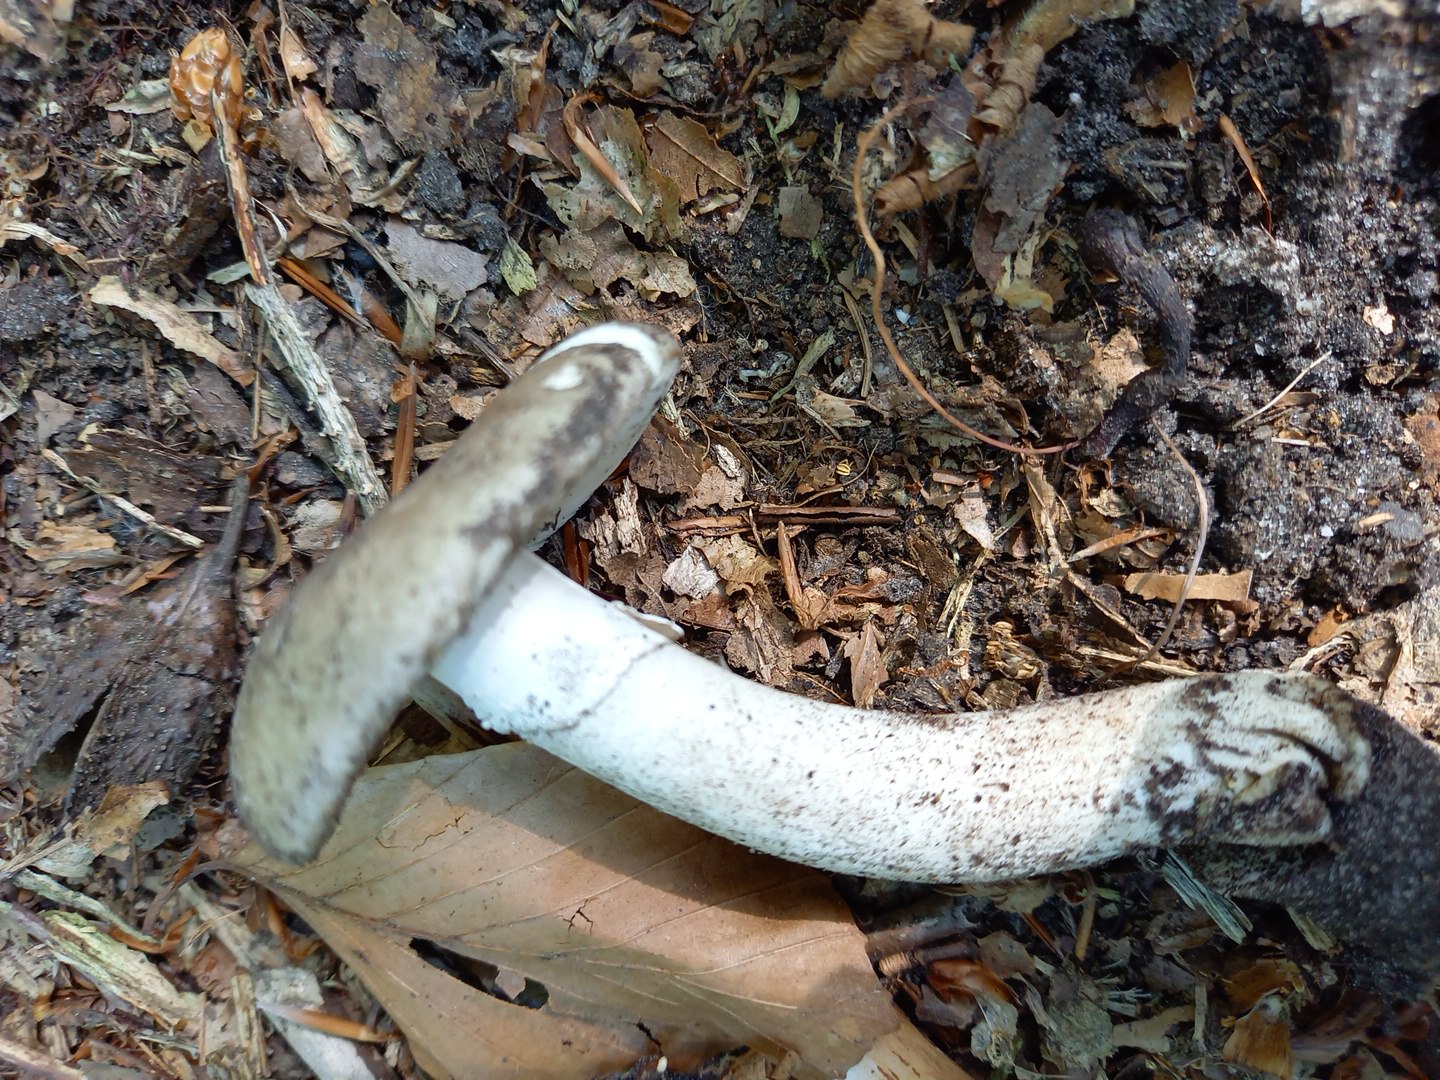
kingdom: Fungi
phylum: Basidiomycota
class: Agaricomycetes
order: Agaricales
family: Amanitaceae
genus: Amanita
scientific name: Amanita
